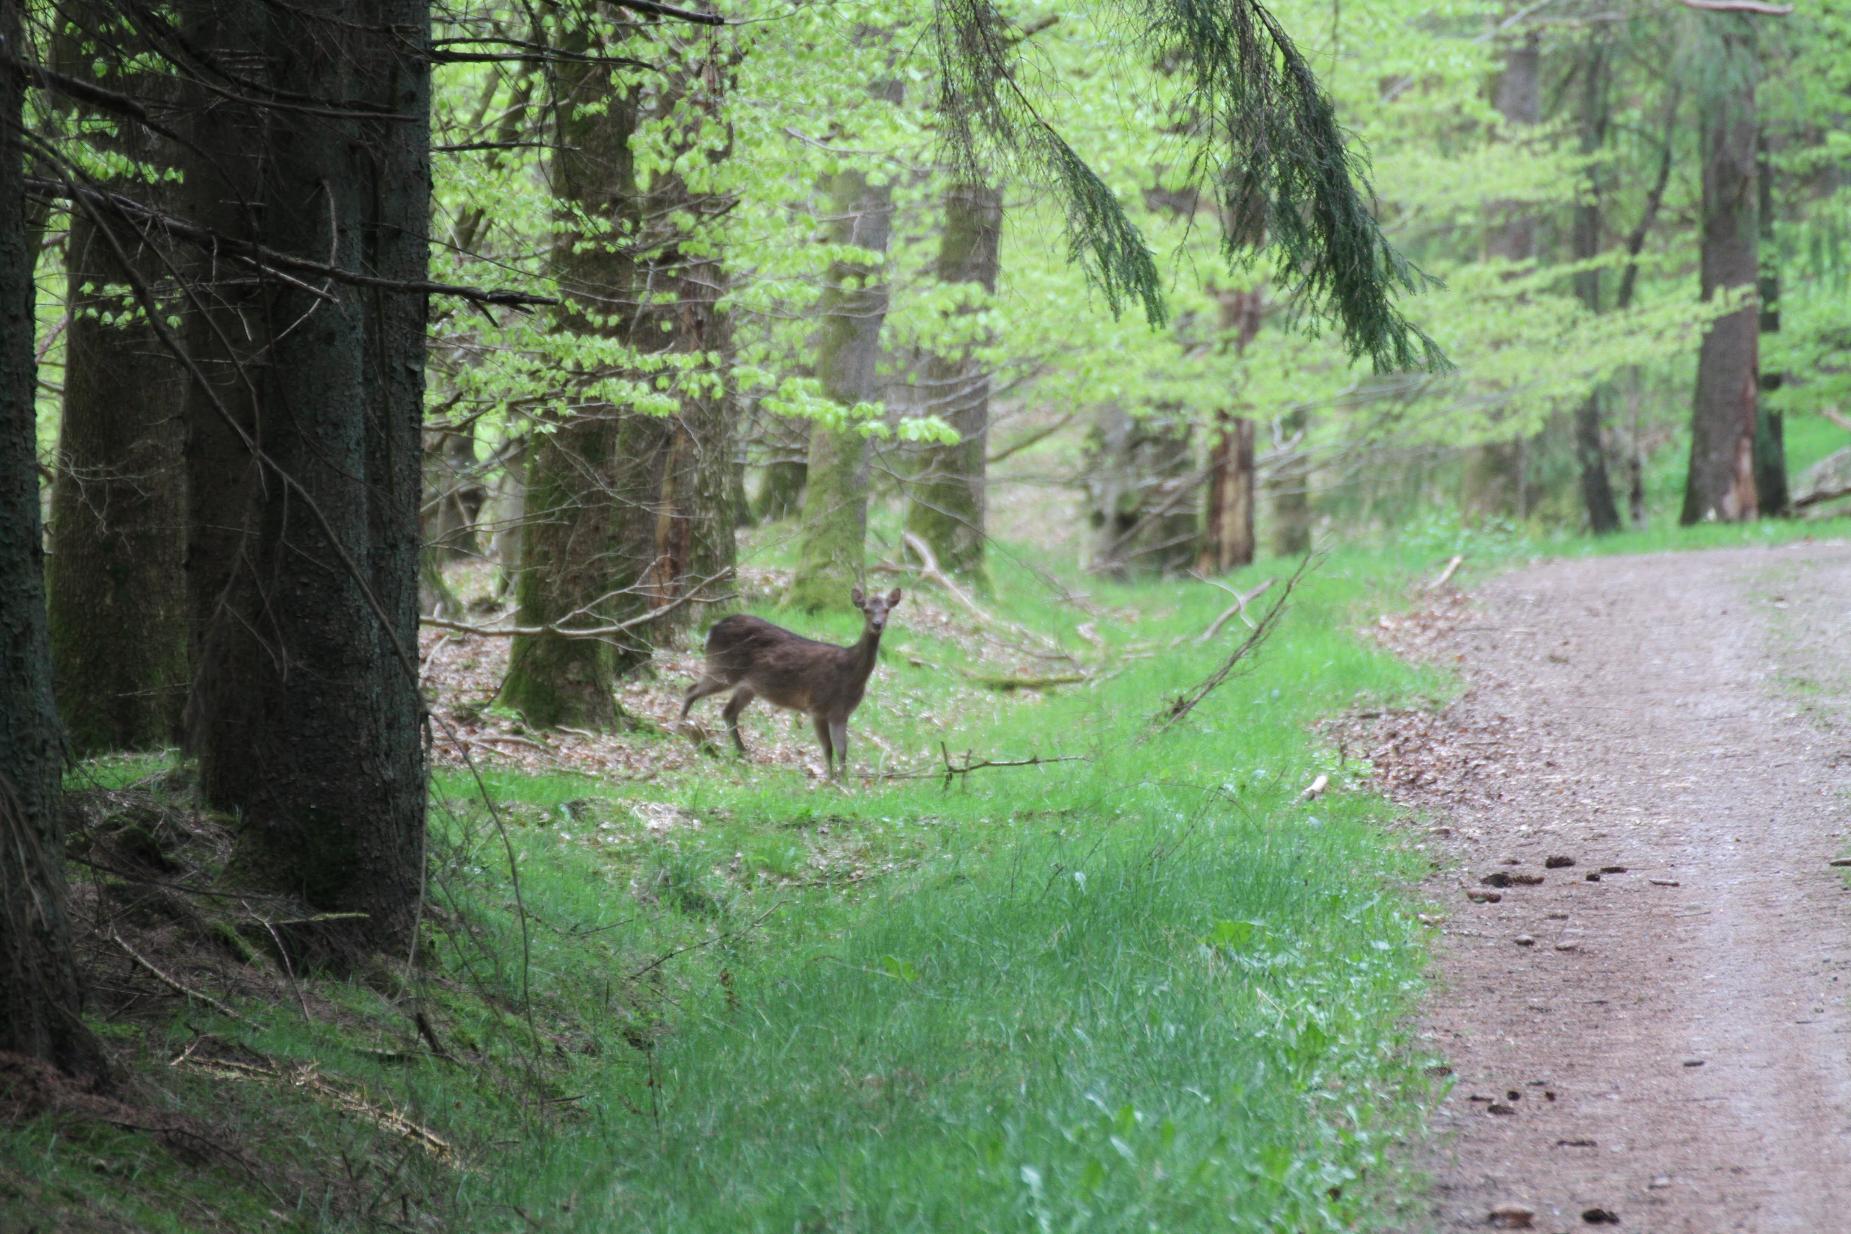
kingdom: Animalia
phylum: Chordata
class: Mammalia
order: Artiodactyla
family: Cervidae
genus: Capreolus
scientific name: Capreolus capreolus
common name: Rådyr
